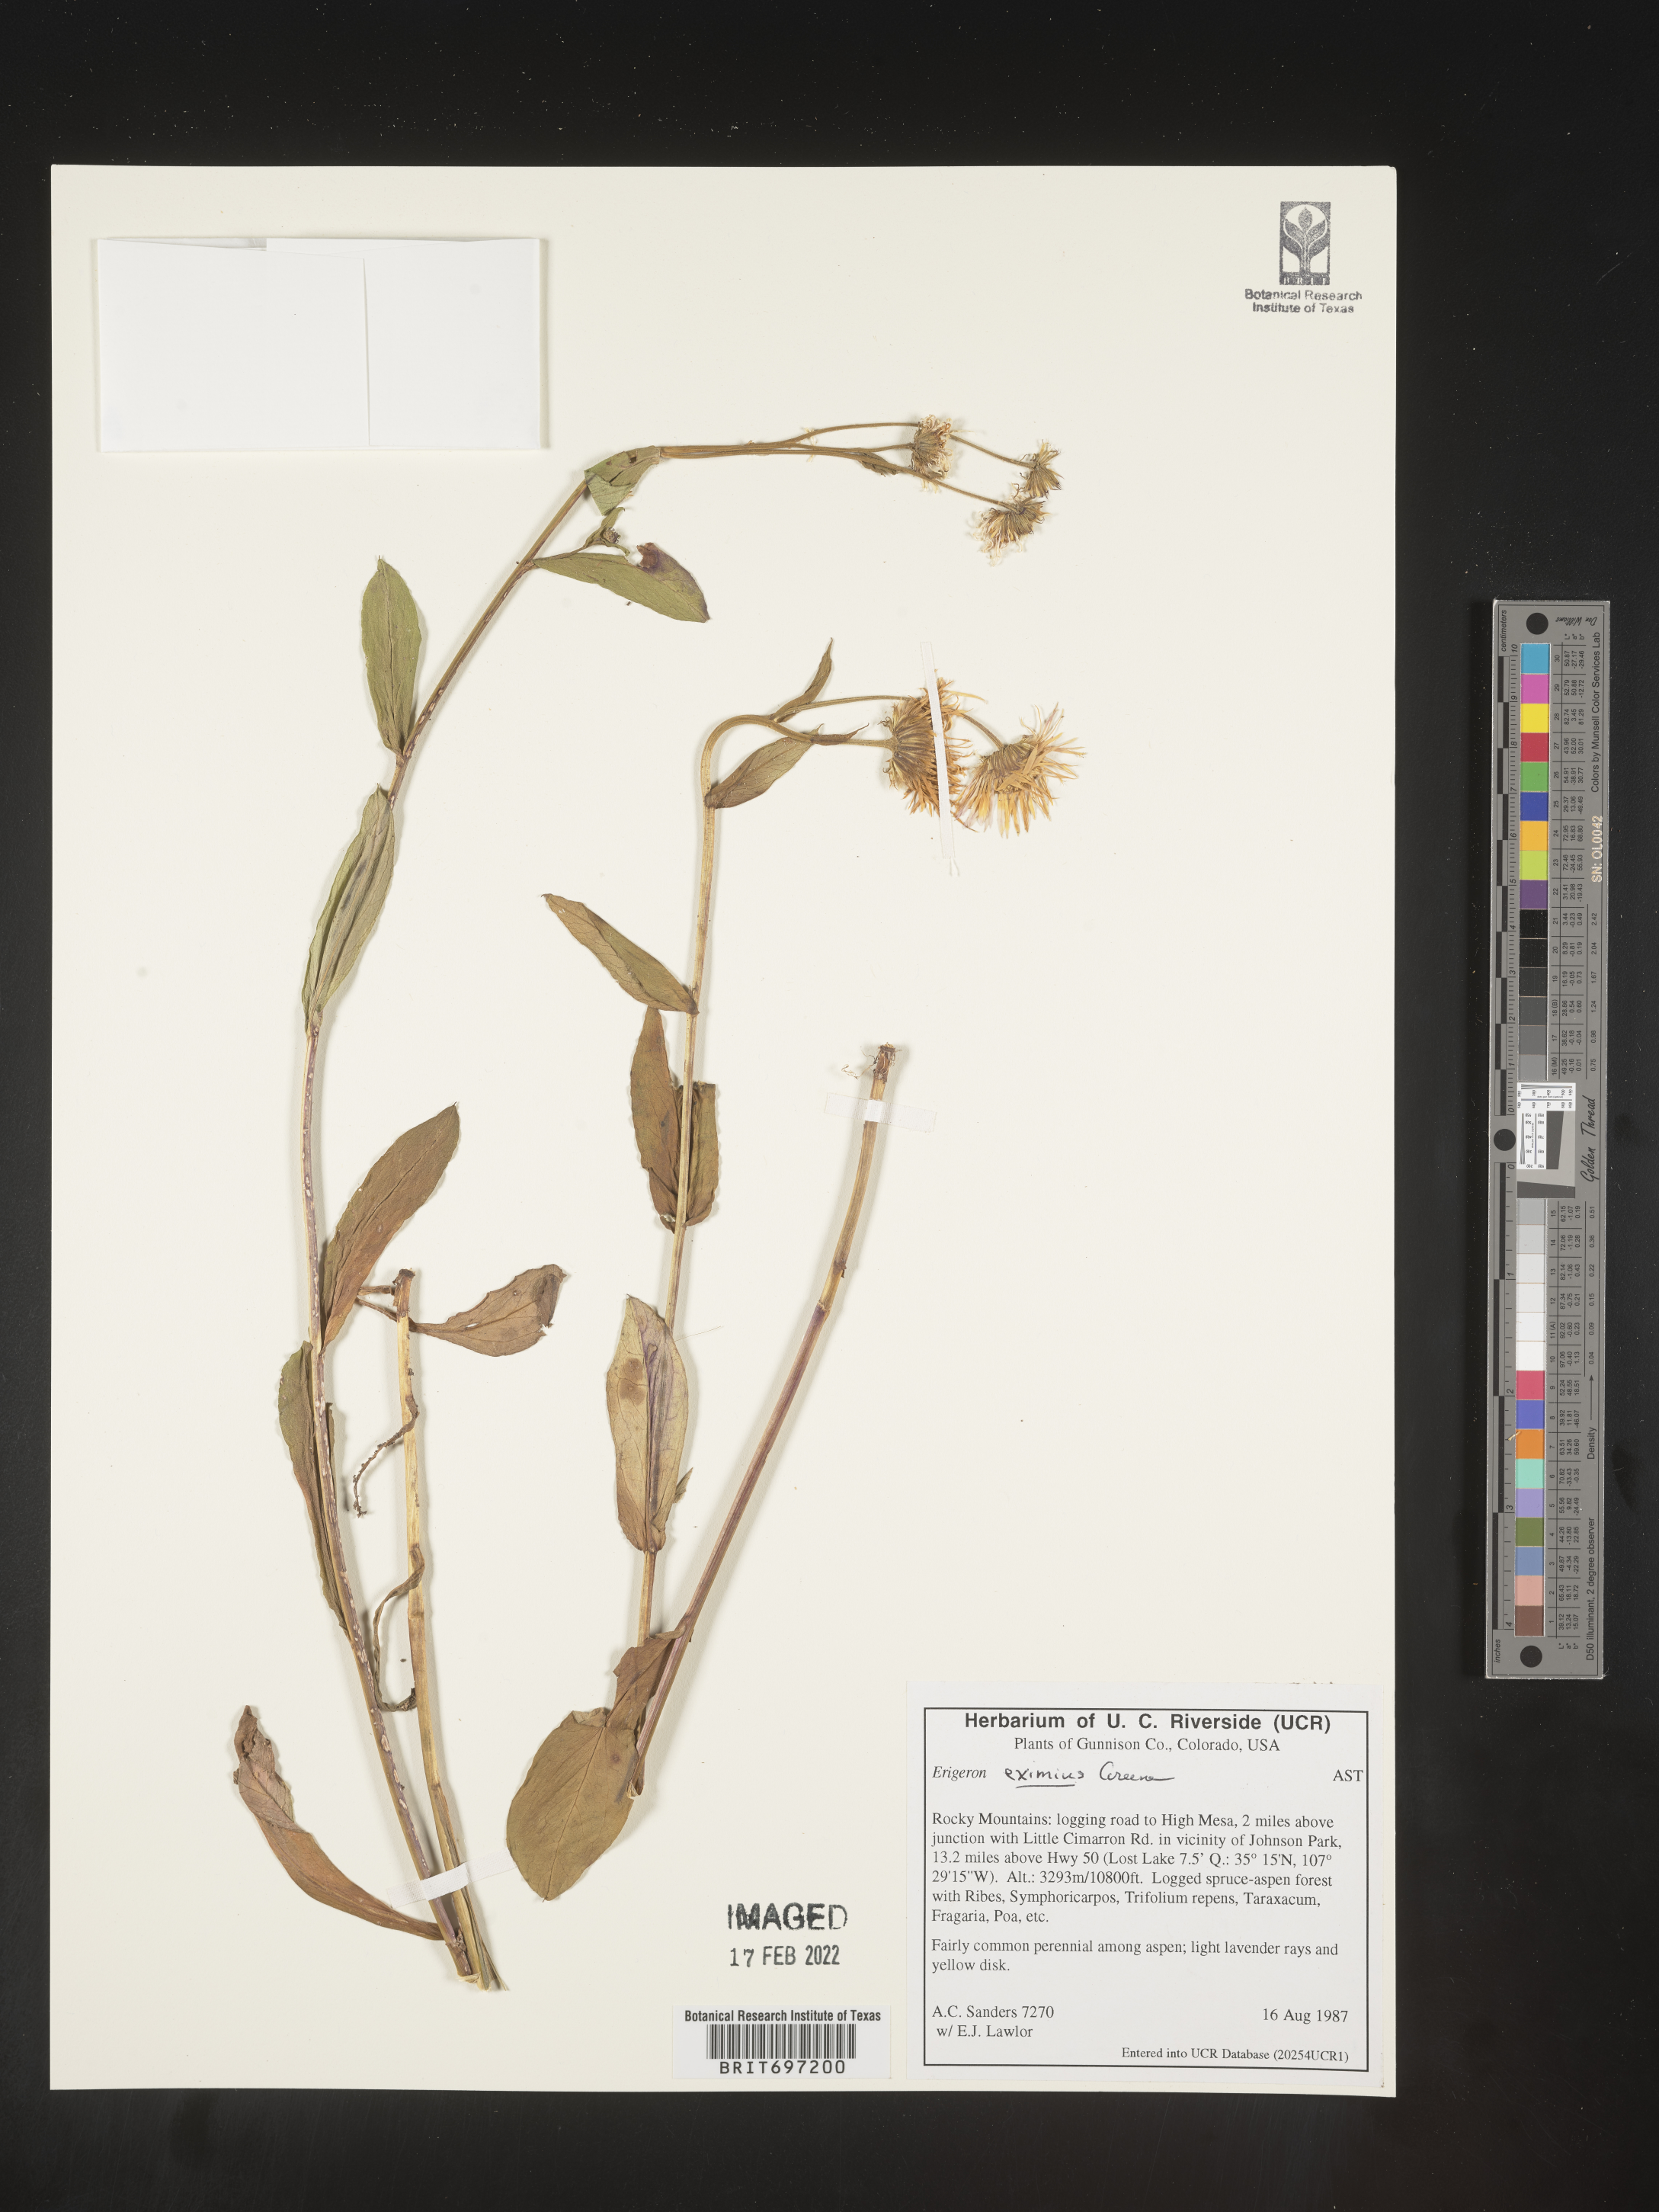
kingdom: Plantae
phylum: Tracheophyta
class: Magnoliopsida
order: Asterales
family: Asteraceae
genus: Erigeron
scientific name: Erigeron eximius
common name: Spruce-fir fleabane
